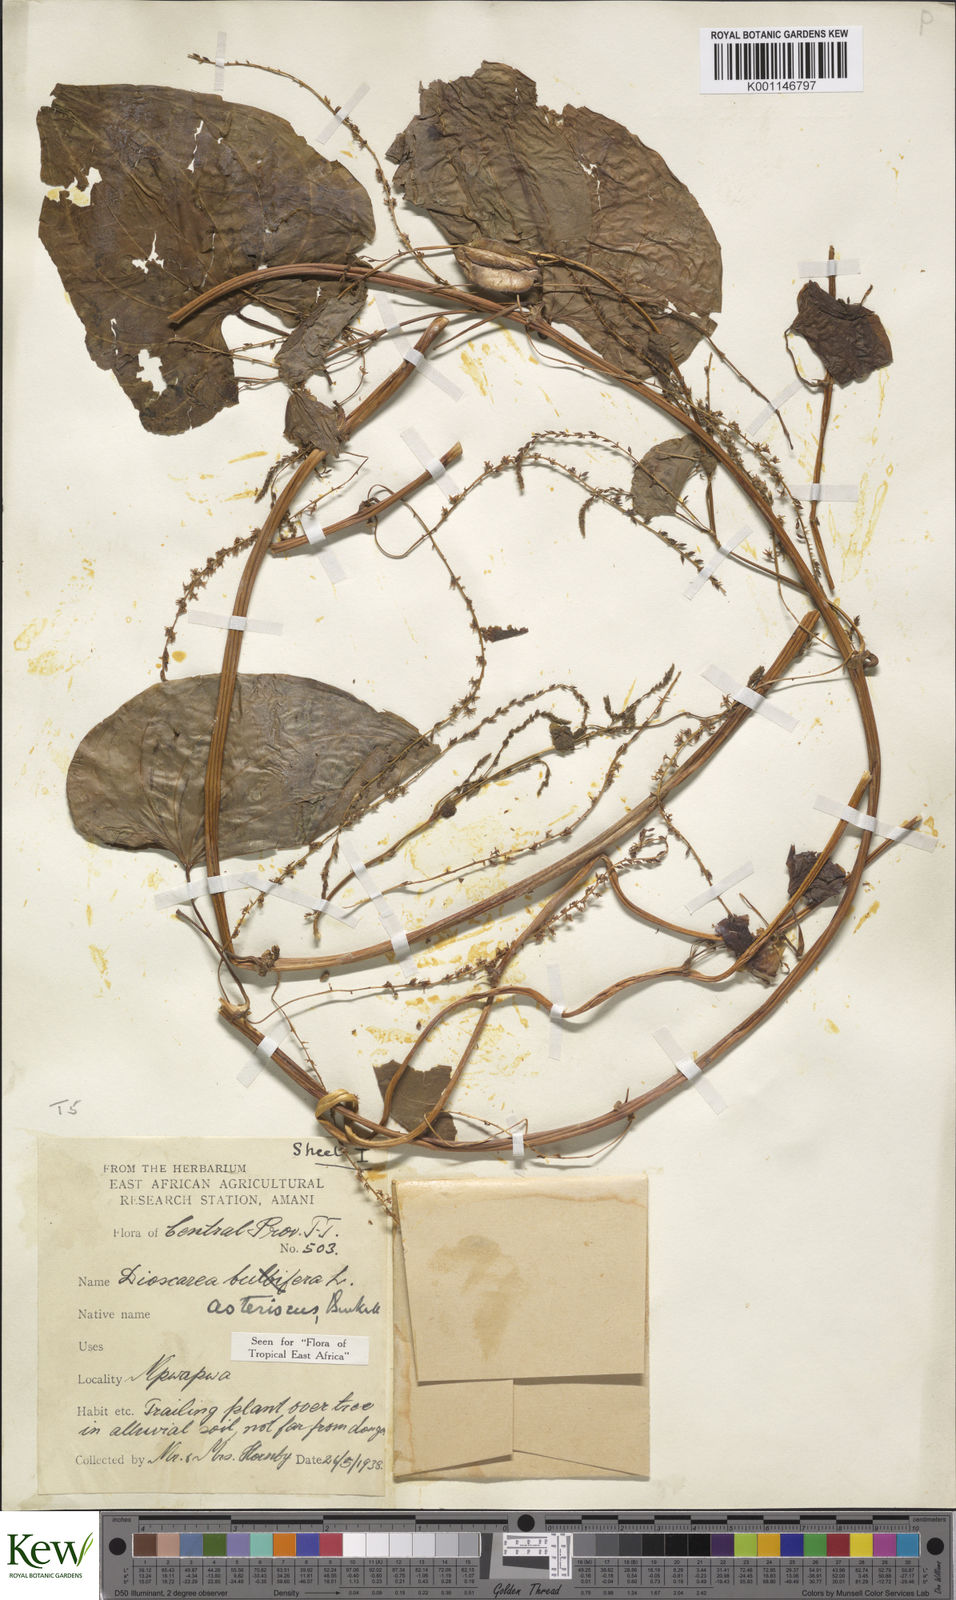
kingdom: Plantae
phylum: Tracheophyta
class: Liliopsida
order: Dioscoreales
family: Dioscoreaceae
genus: Dioscorea
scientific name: Dioscorea asteriscus
